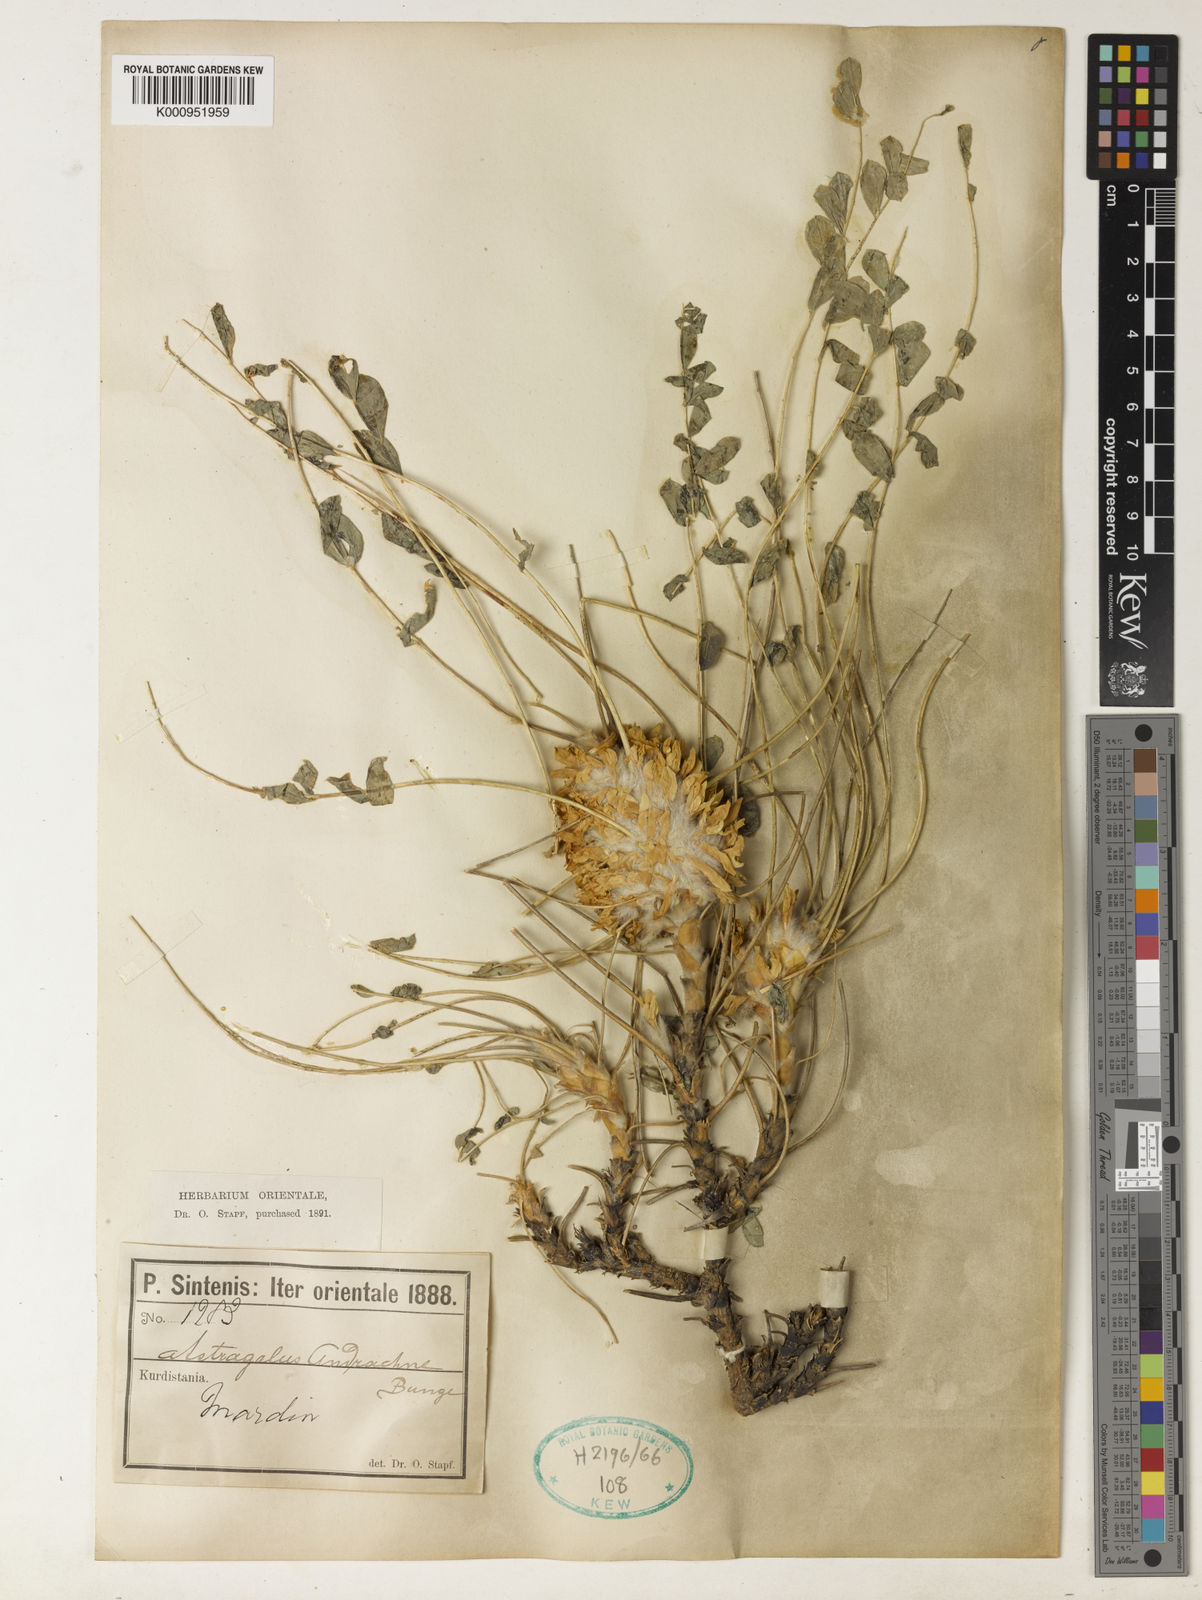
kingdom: Plantae
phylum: Tracheophyta
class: Magnoliopsida
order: Fabales
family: Fabaceae
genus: Astragalus
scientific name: Astragalus cephalotes
